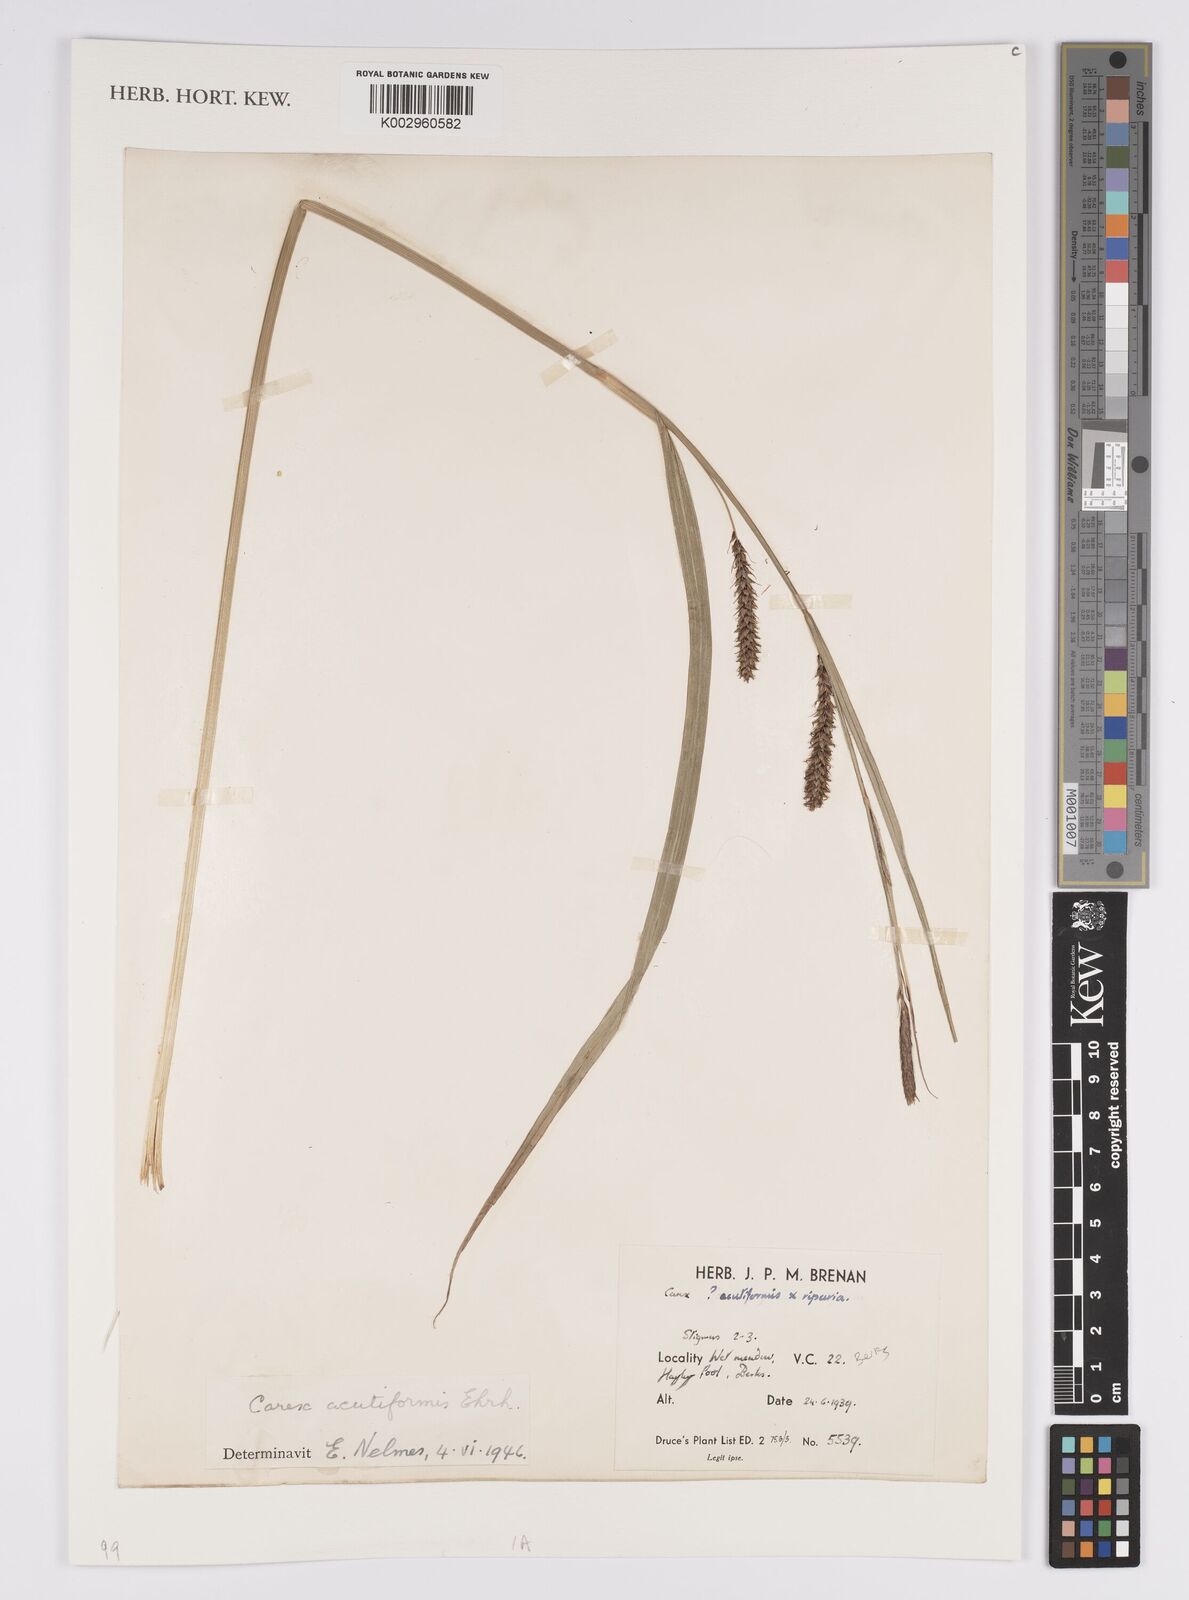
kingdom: Plantae
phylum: Tracheophyta
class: Liliopsida
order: Poales
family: Cyperaceae
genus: Carex
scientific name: Carex acutiformis
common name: Lesser pond-sedge
